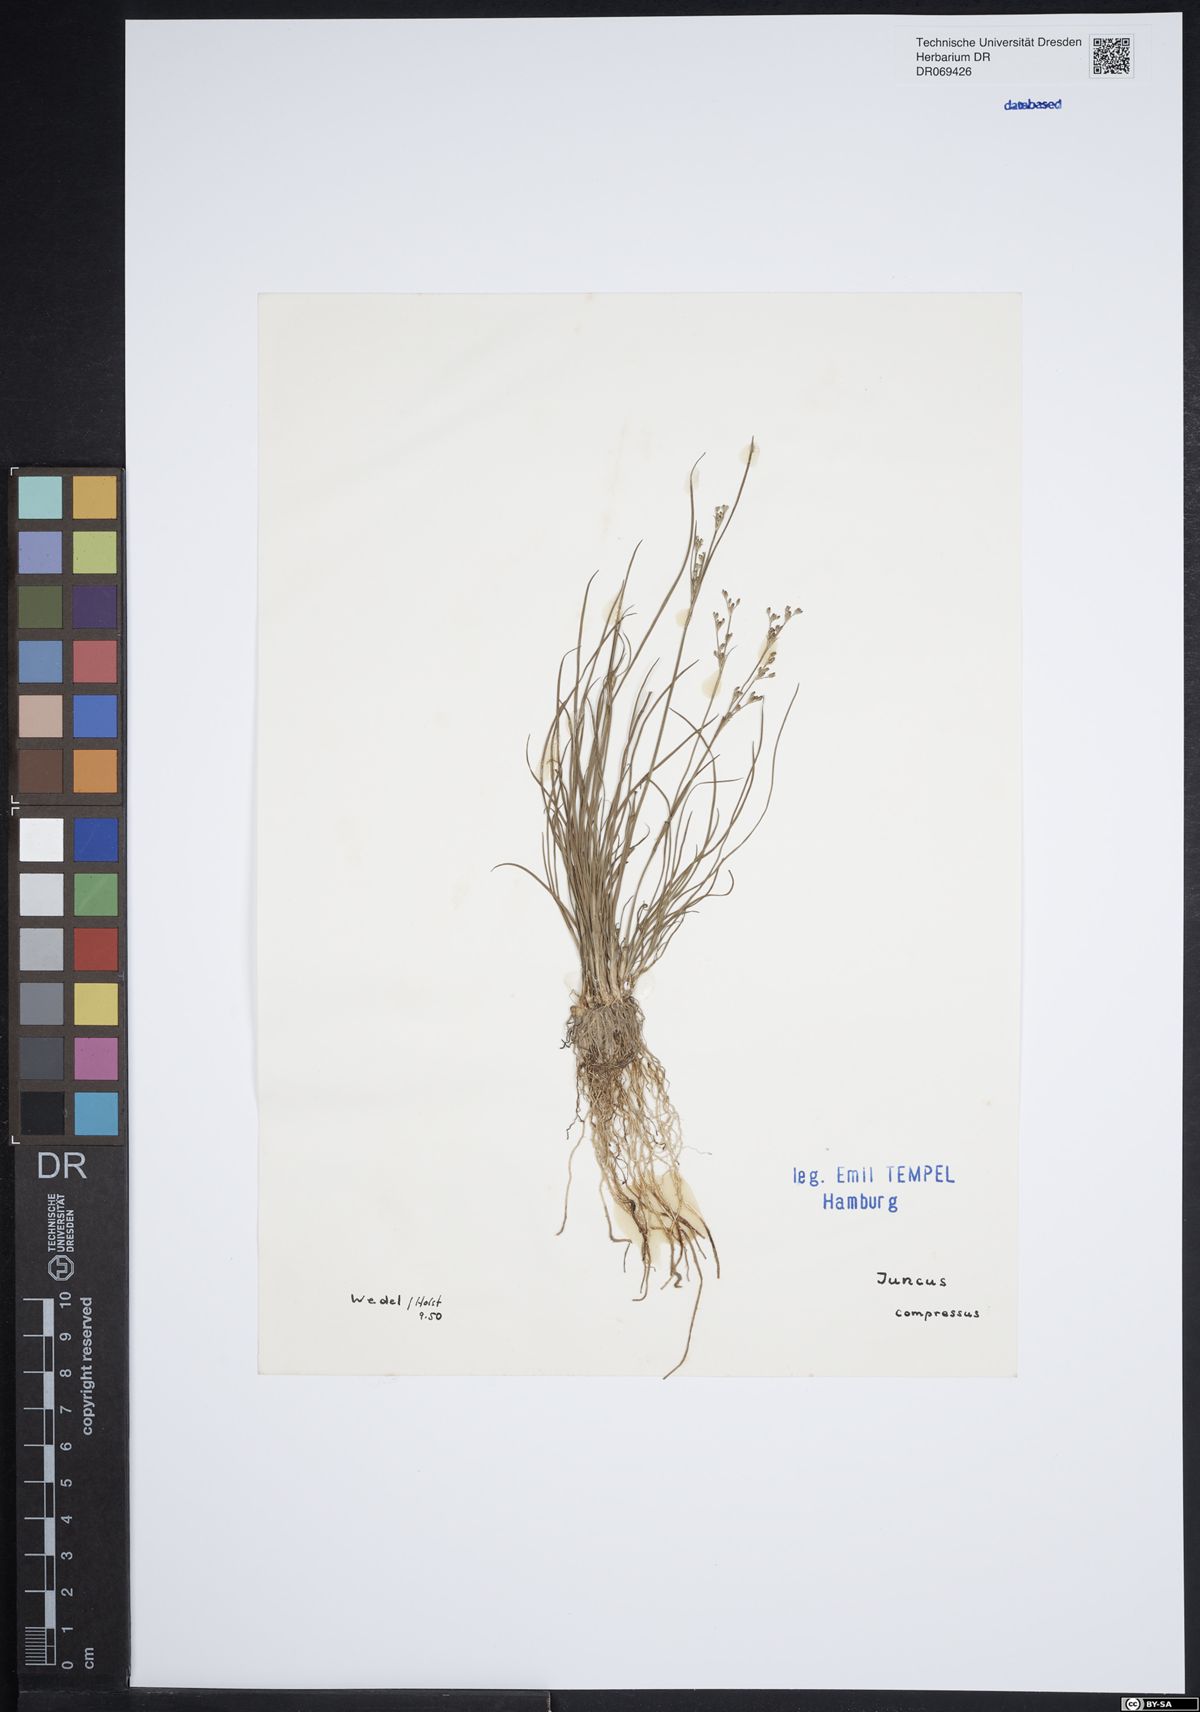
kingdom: Plantae
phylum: Tracheophyta
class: Liliopsida
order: Poales
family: Juncaceae
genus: Juncus
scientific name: Juncus compressus
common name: Round-fruited rush
